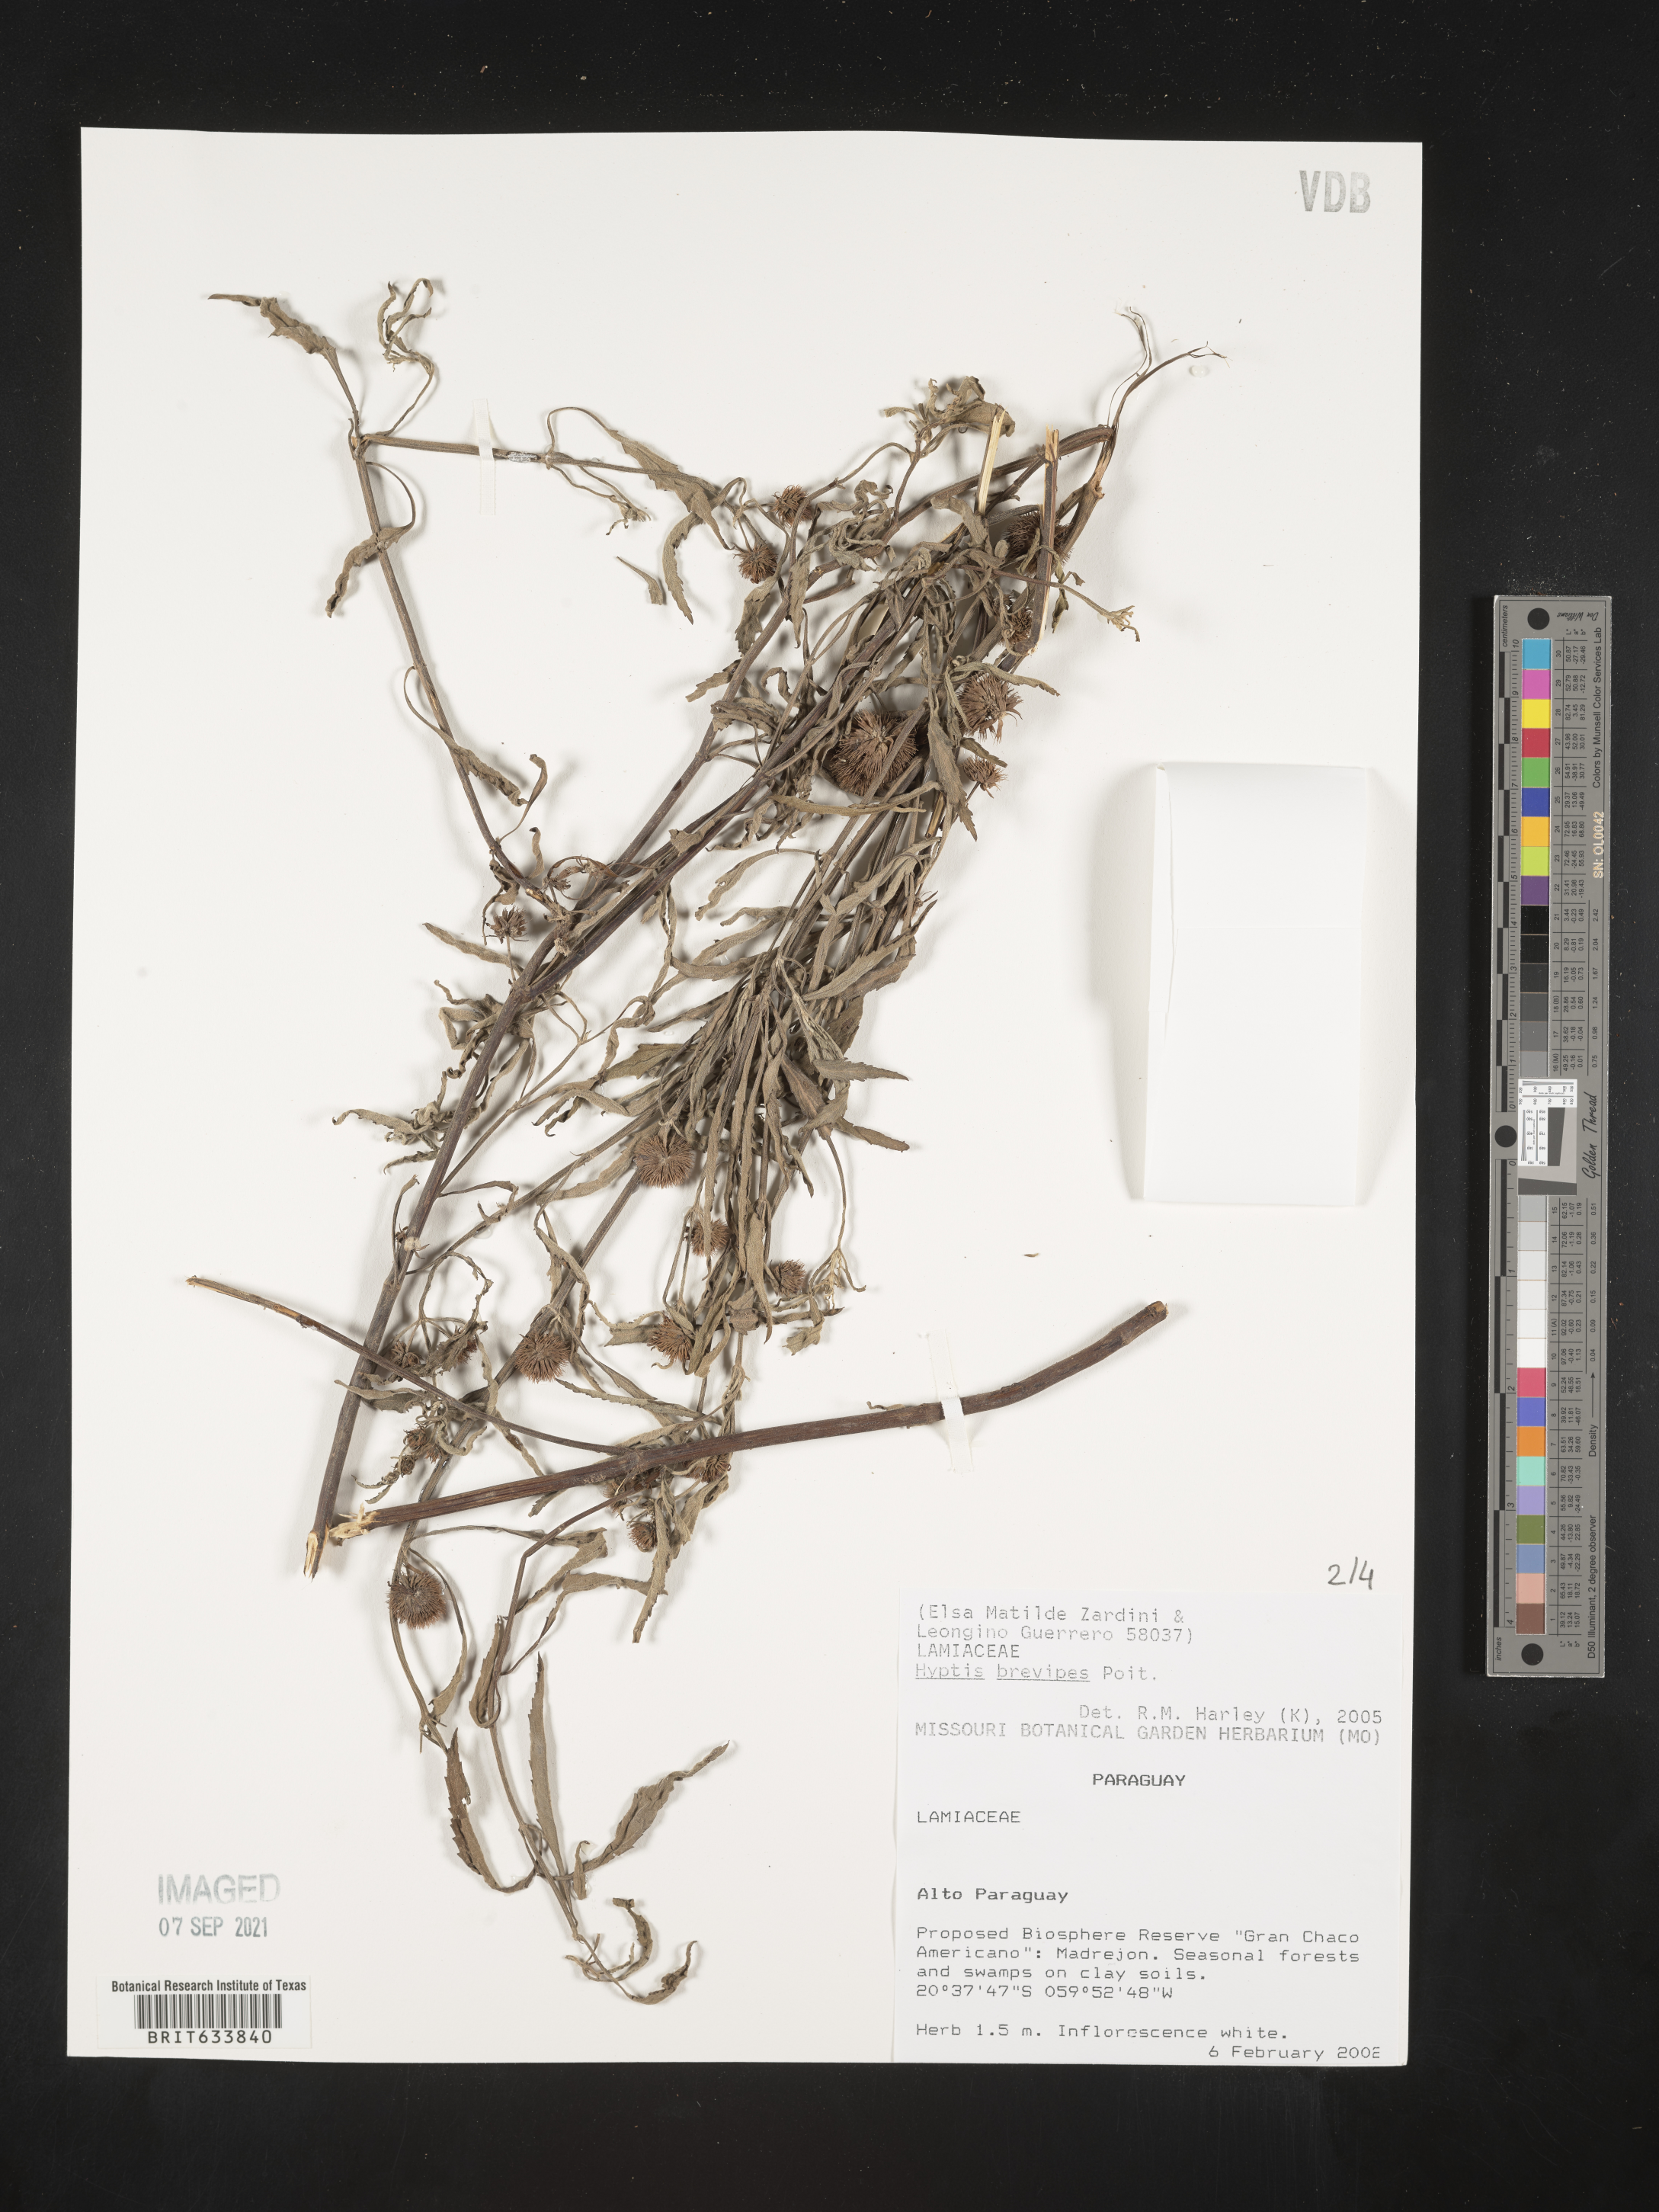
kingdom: Plantae
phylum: Tracheophyta
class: Magnoliopsida
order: Lamiales
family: Lamiaceae
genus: Hyptis
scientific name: Hyptis
